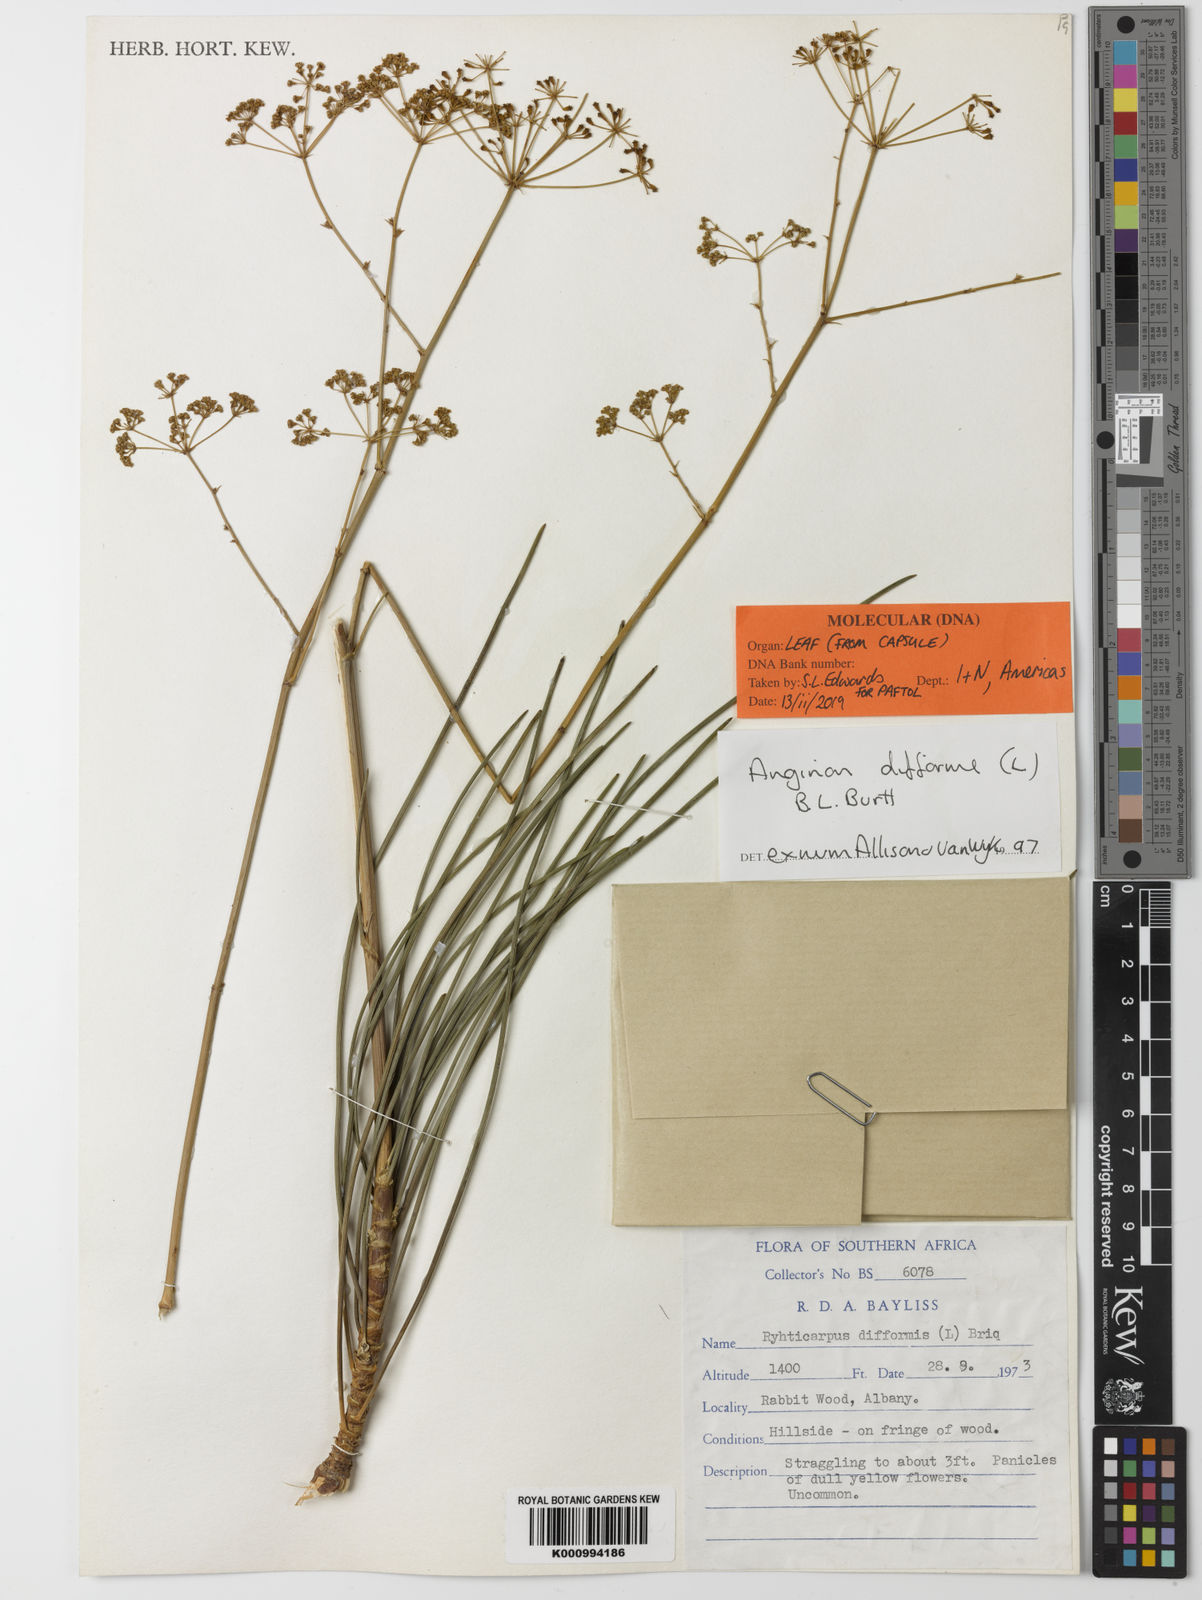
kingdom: Plantae
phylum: Tracheophyta
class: Magnoliopsida
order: Apiales
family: Apiaceae
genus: Anginon
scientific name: Anginon difforme
